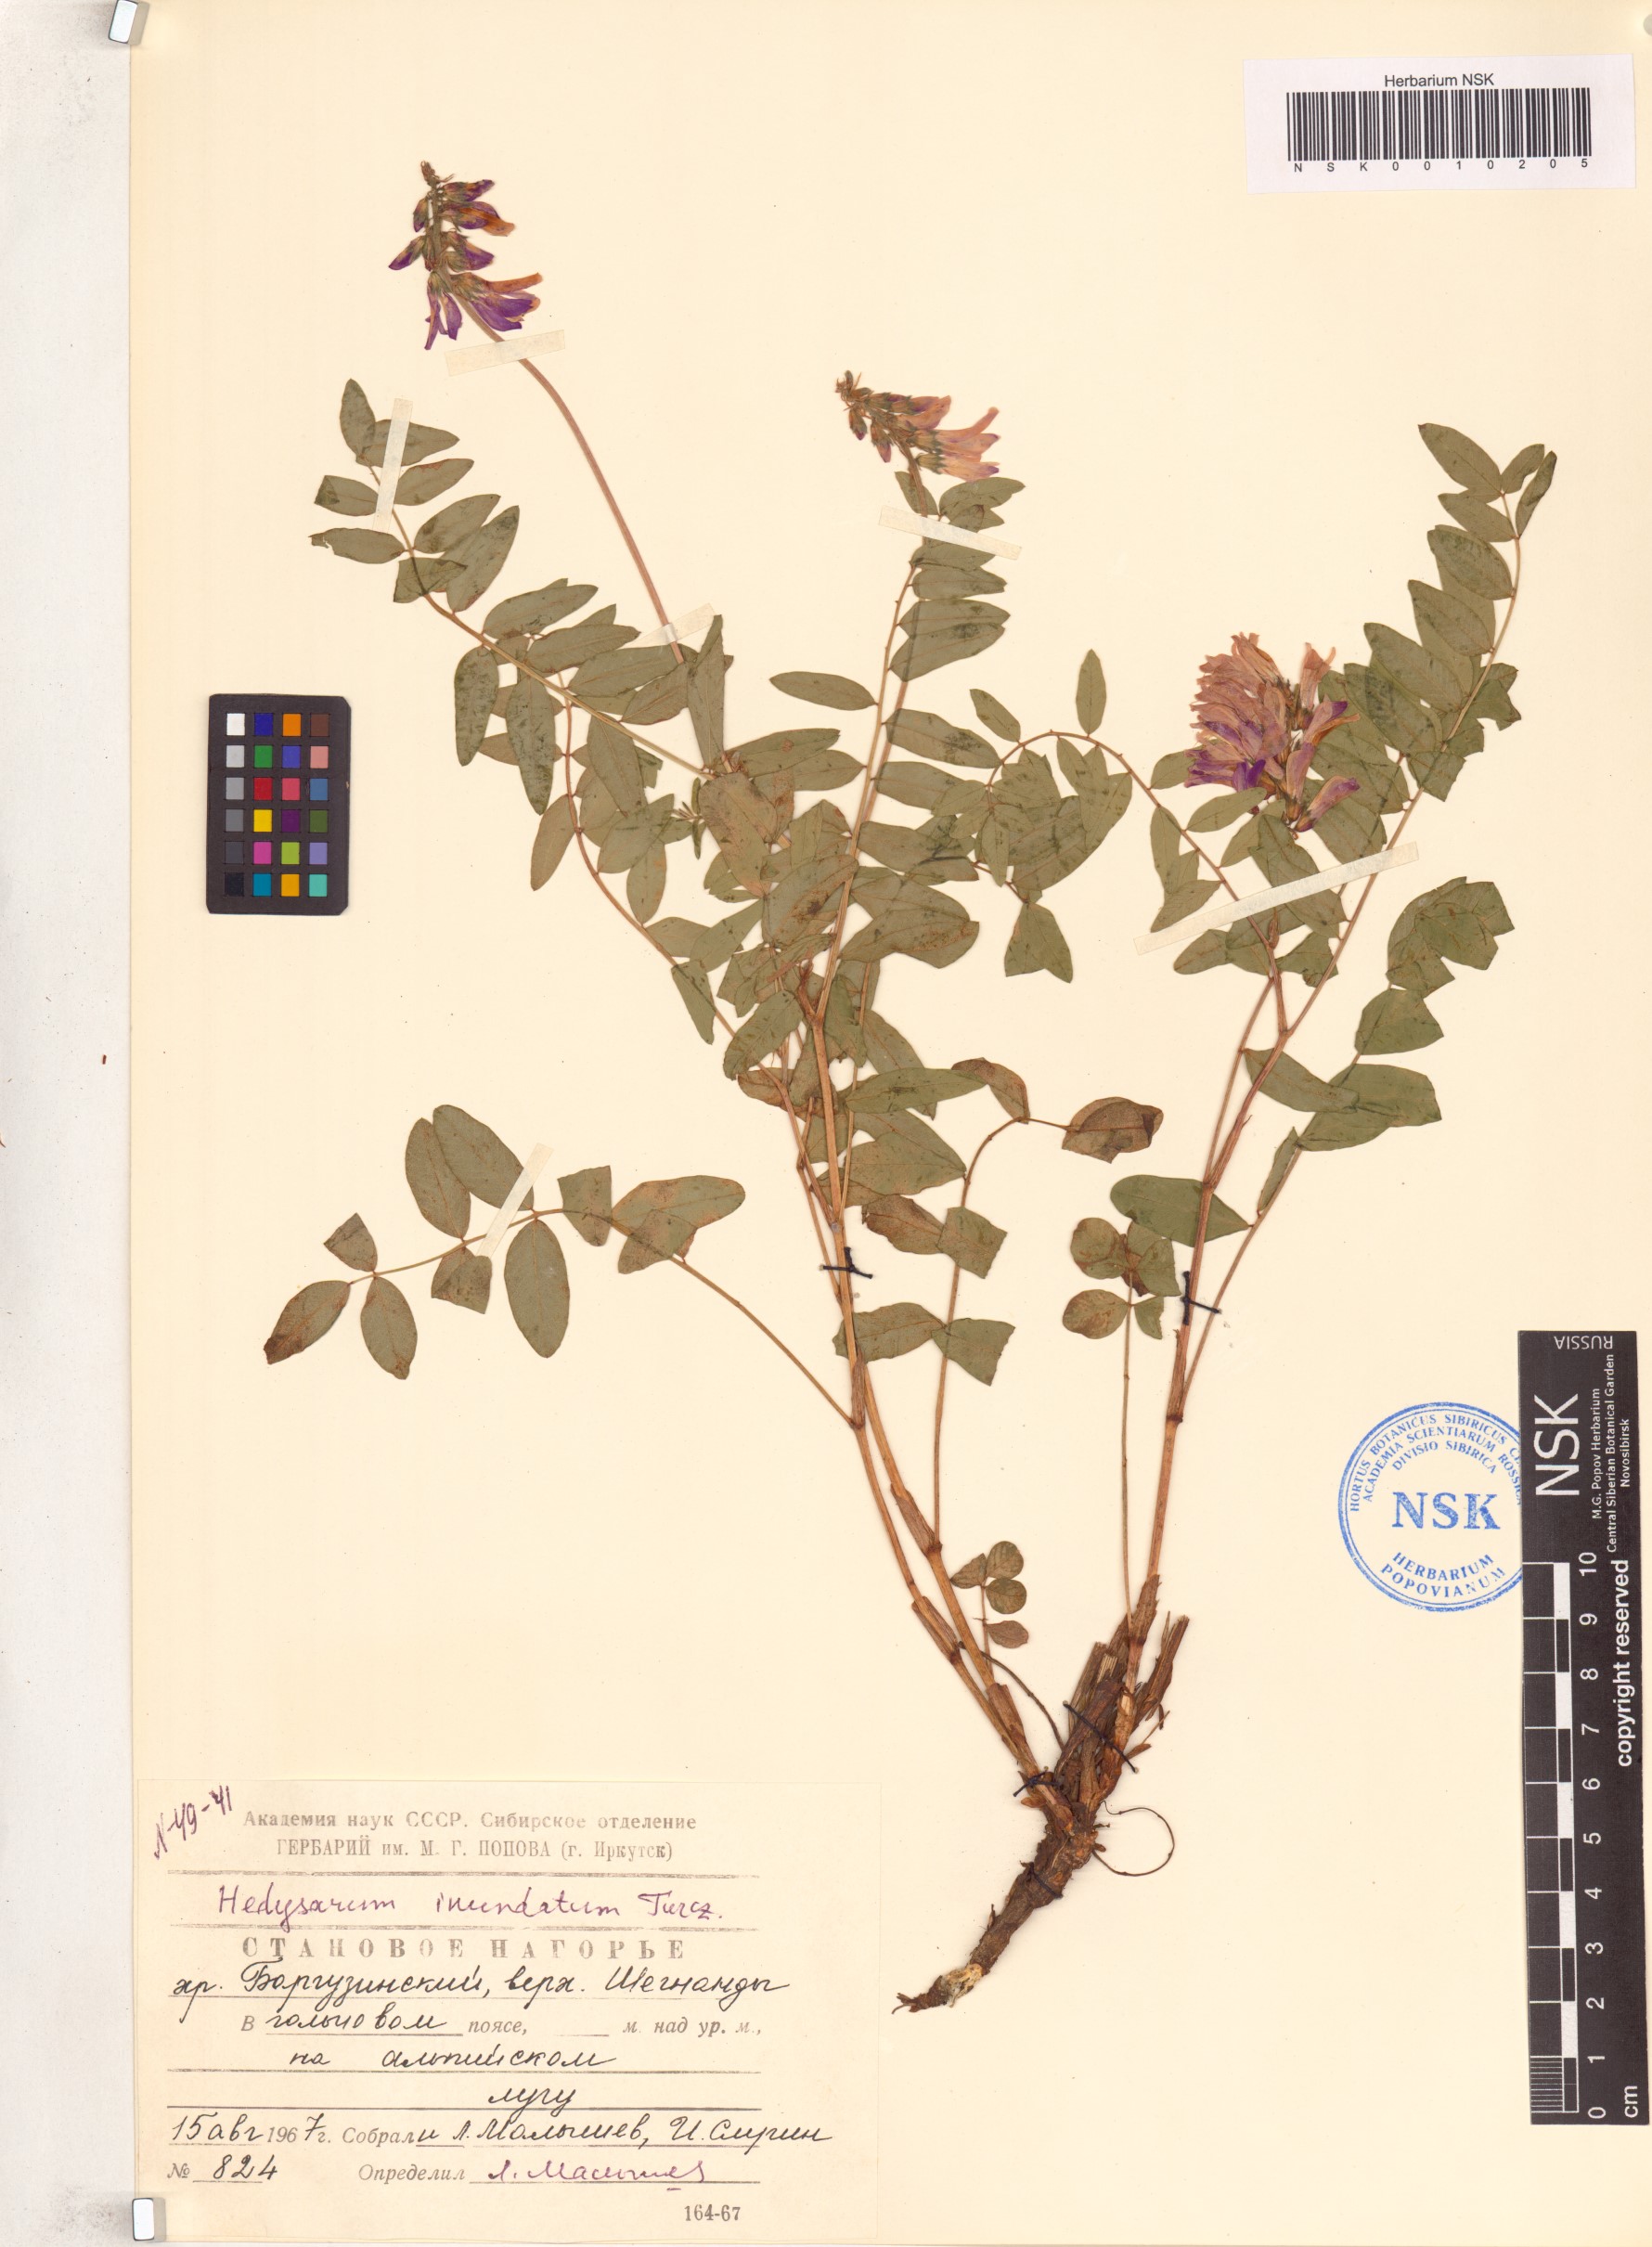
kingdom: Plantae
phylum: Tracheophyta
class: Magnoliopsida
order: Fabales
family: Fabaceae
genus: Hedysarum
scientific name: Hedysarum inundatum
